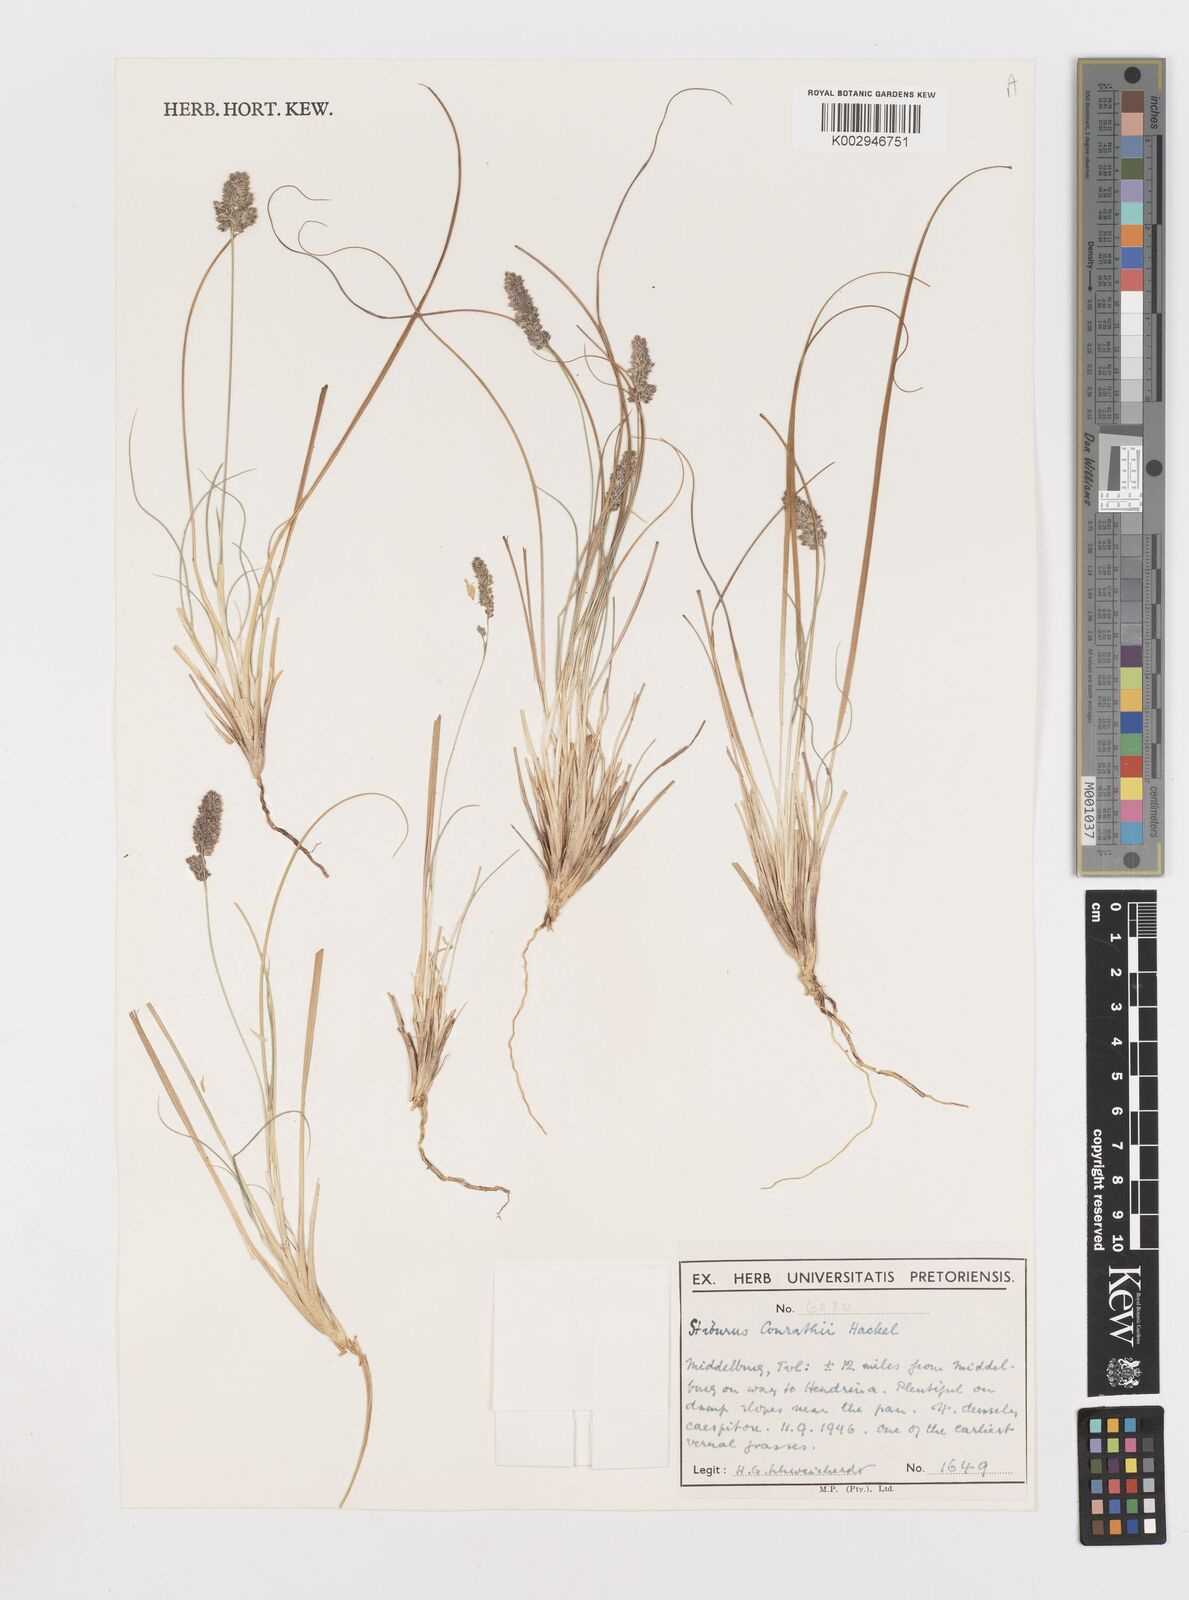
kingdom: Plantae
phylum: Tracheophyta
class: Liliopsida
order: Poales
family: Poaceae
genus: Stiburus
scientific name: Stiburus conrathii
